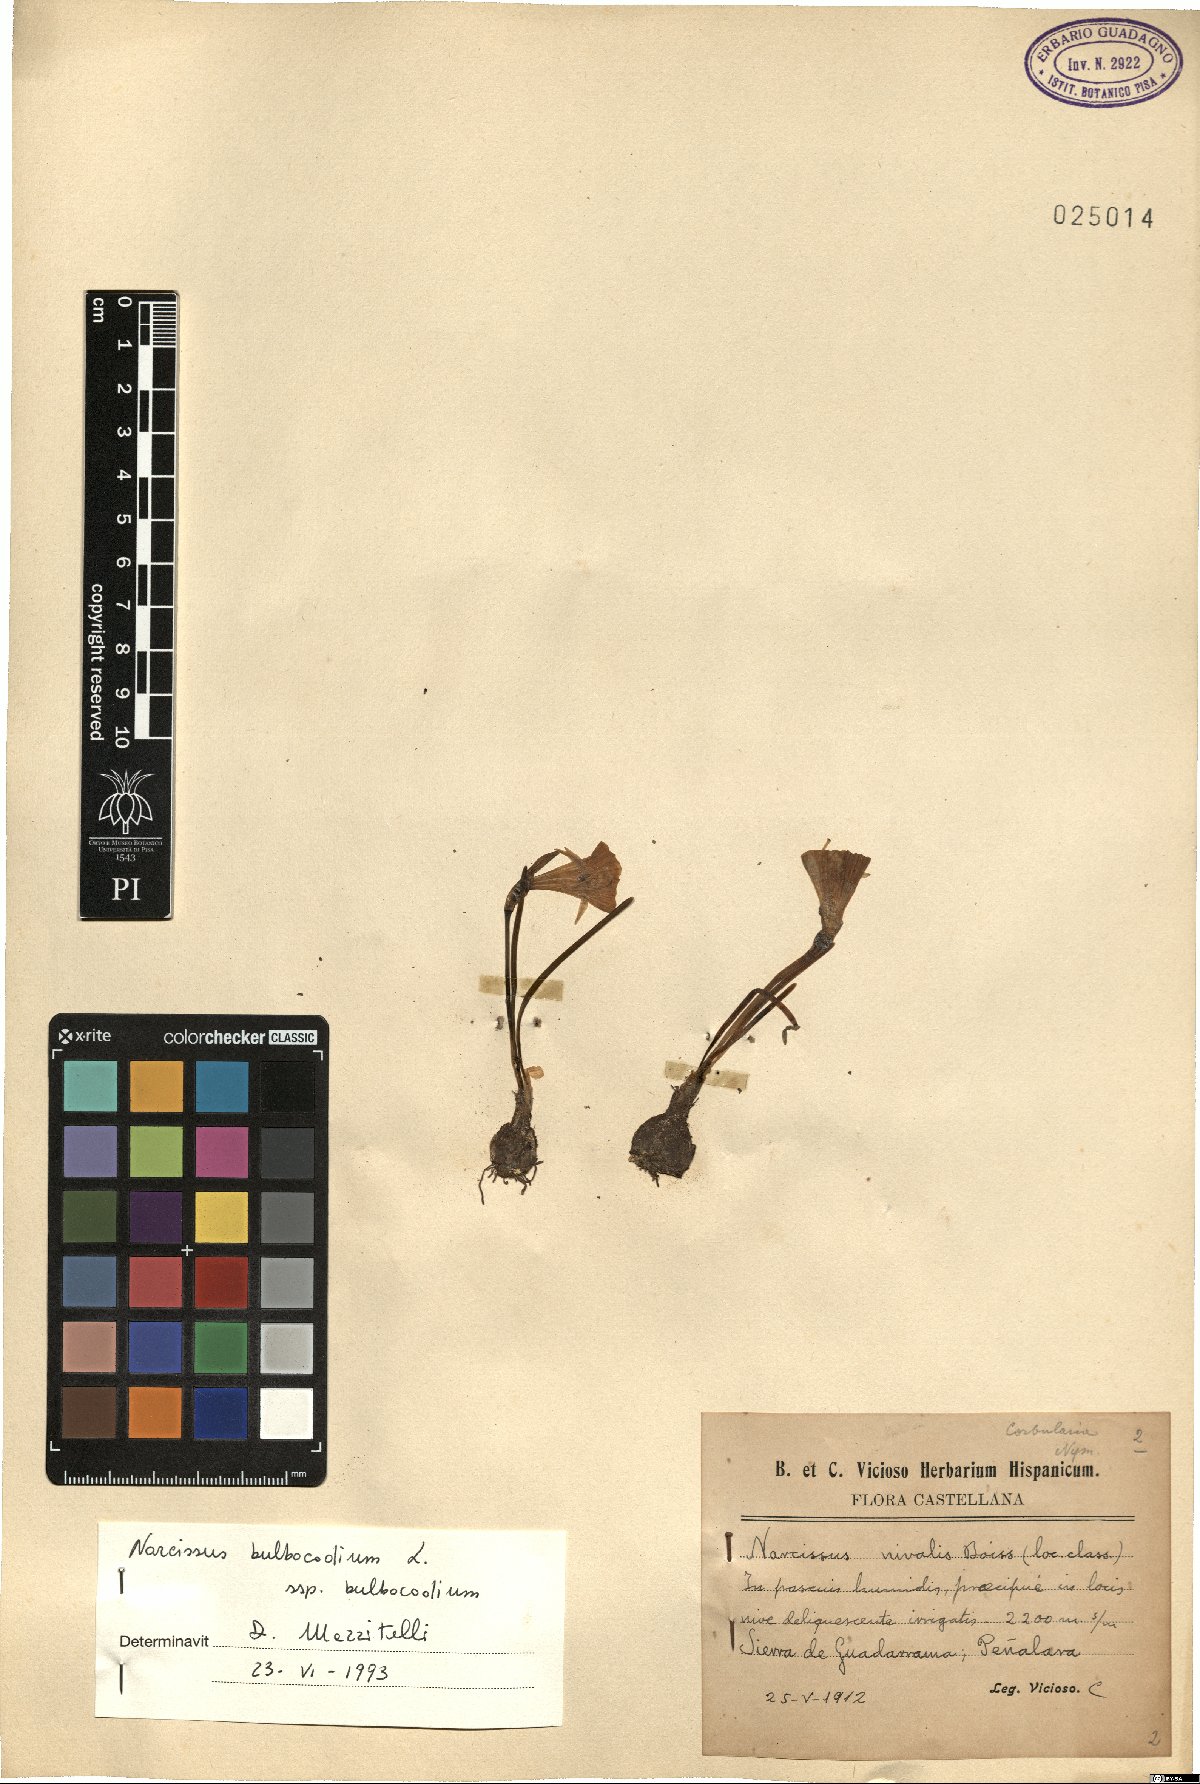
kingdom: Plantae
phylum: Tracheophyta
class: Liliopsida
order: Asparagales
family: Amaryllidaceae
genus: Narcissus
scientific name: Narcissus bulbocodium
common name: Hoop-petticoat daffodil
